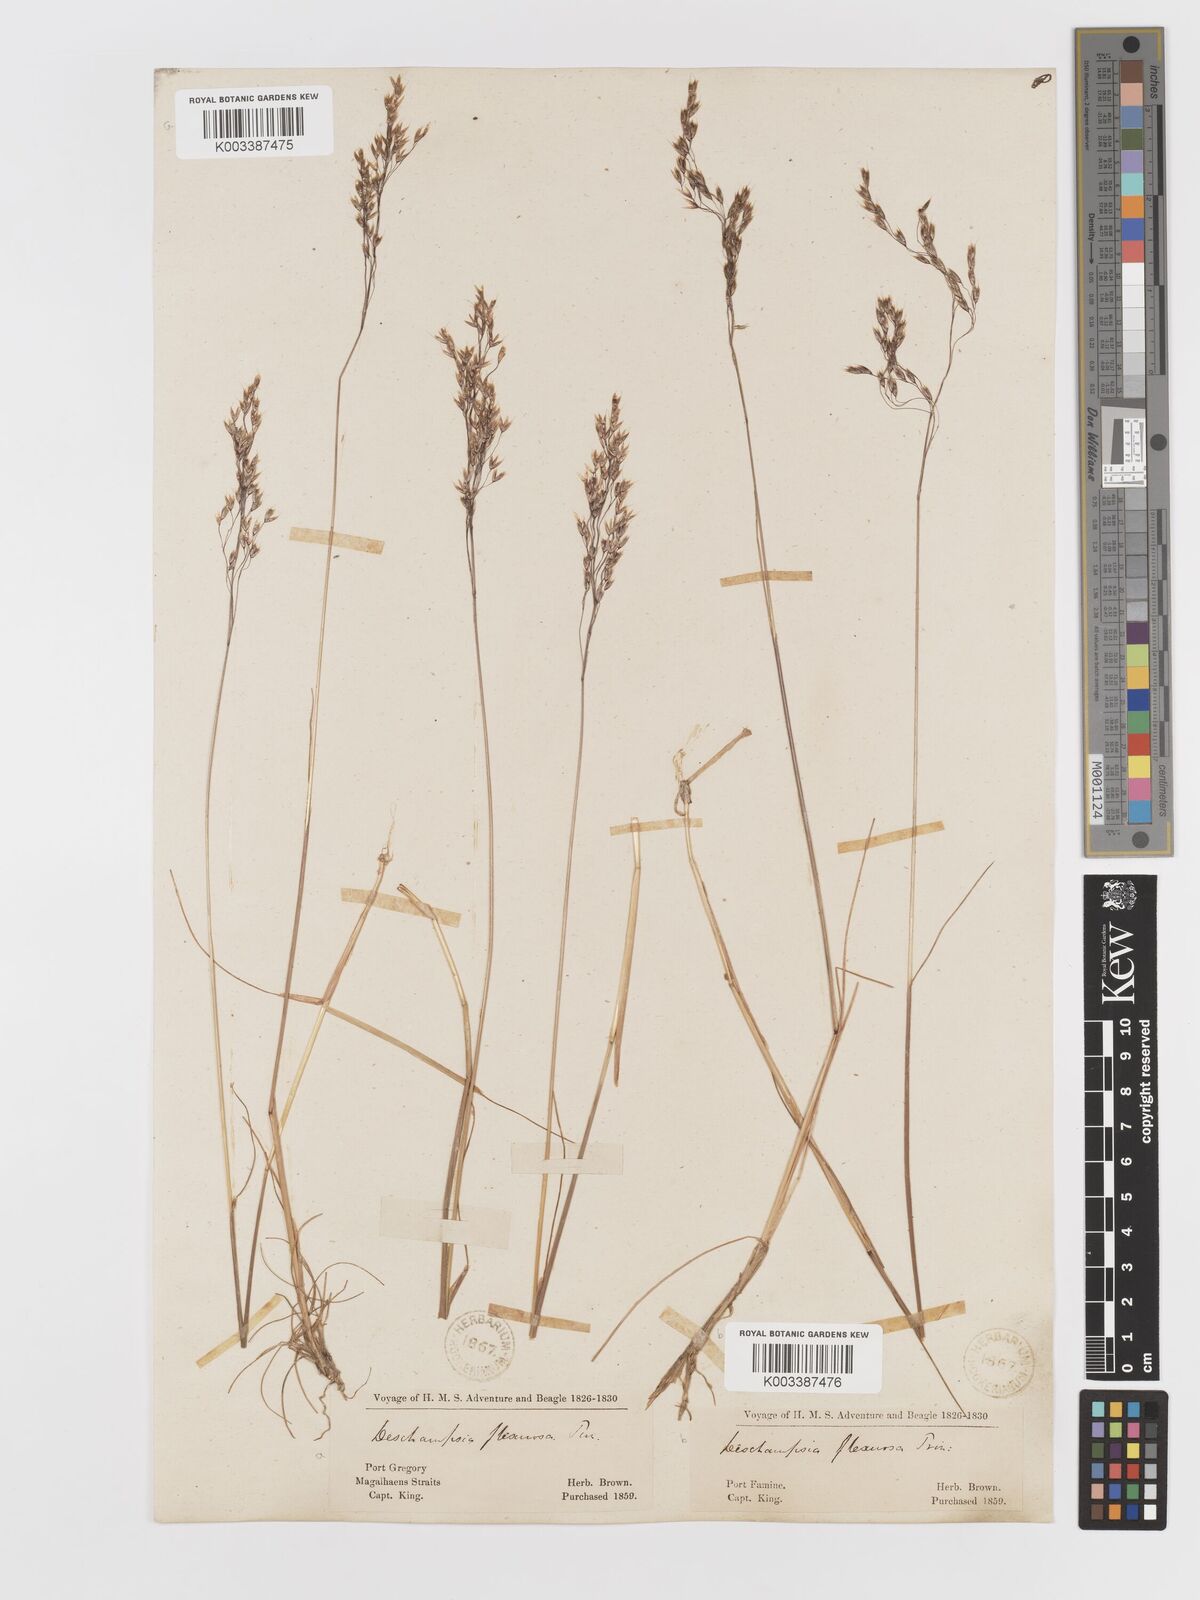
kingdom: Plantae
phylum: Tracheophyta
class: Liliopsida
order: Poales
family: Poaceae
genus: Avenella
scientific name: Avenella flexuosa
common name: Wavy hairgrass
